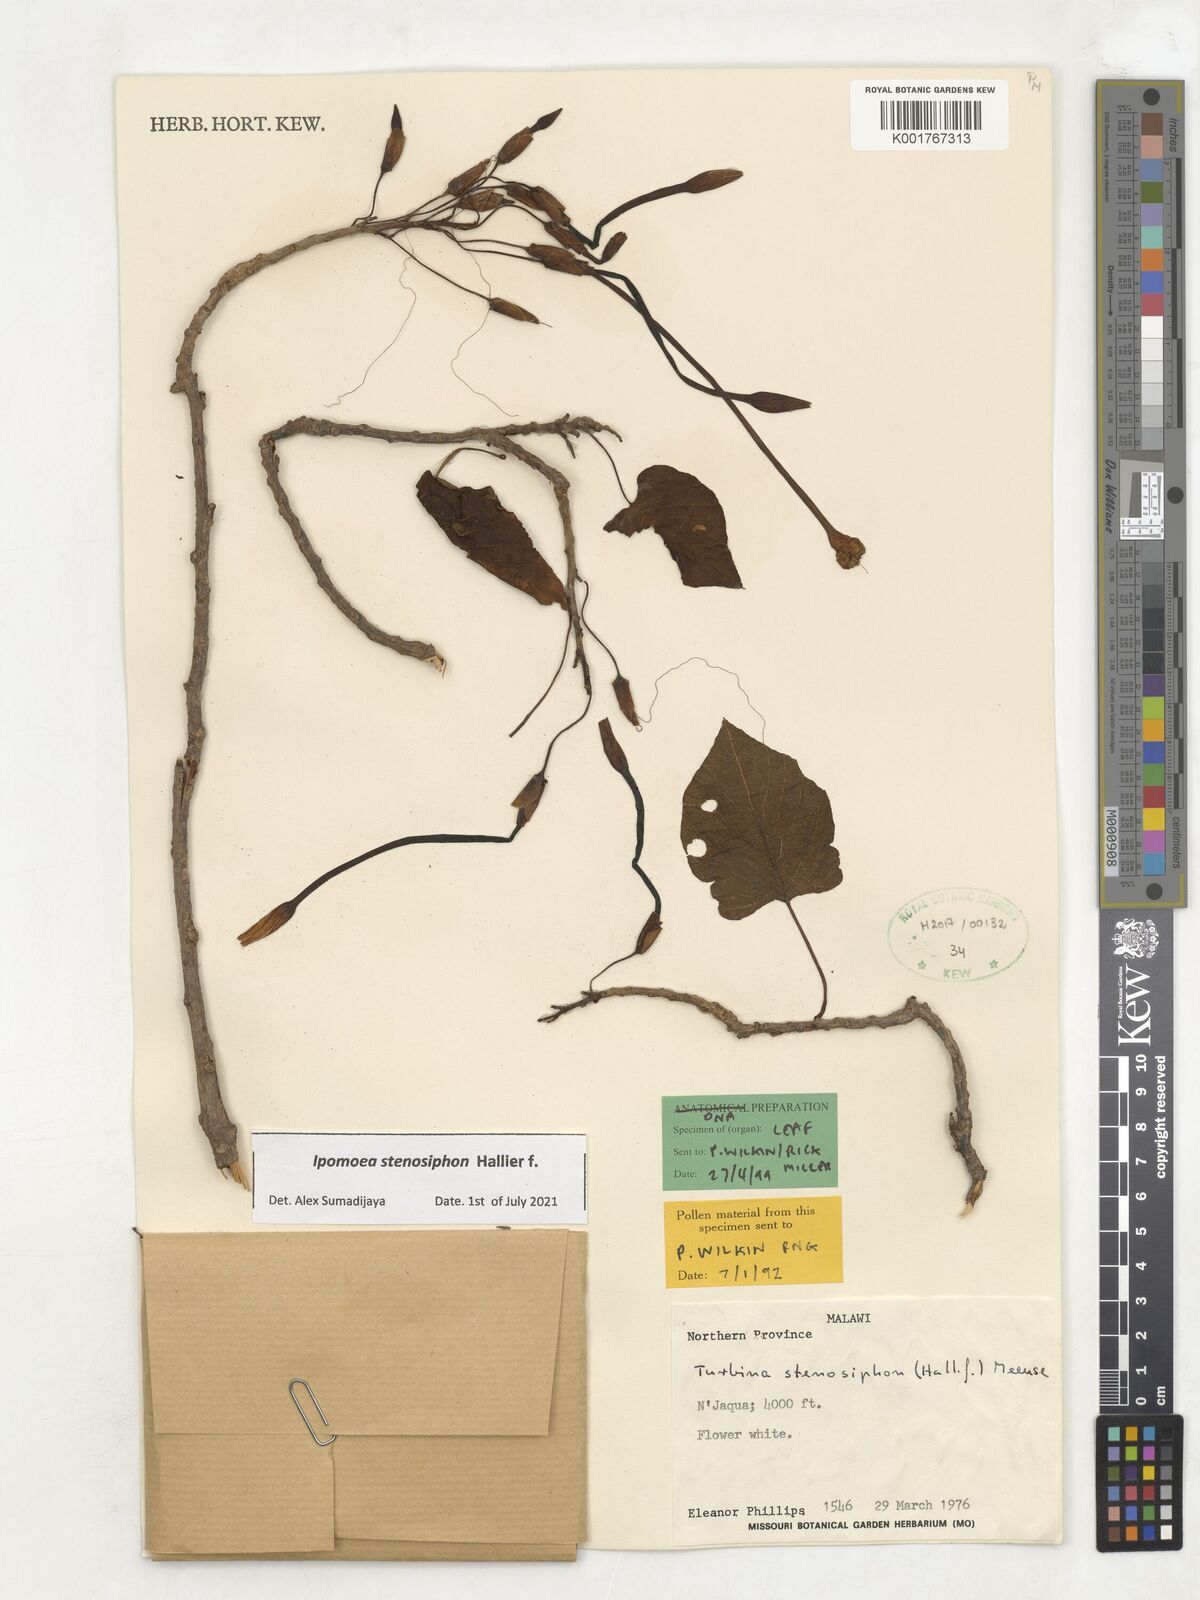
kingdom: Plantae
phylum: Tracheophyta
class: Magnoliopsida
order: Solanales
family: Convolvulaceae
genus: Ipomoea
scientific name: Ipomoea stenosiphon
